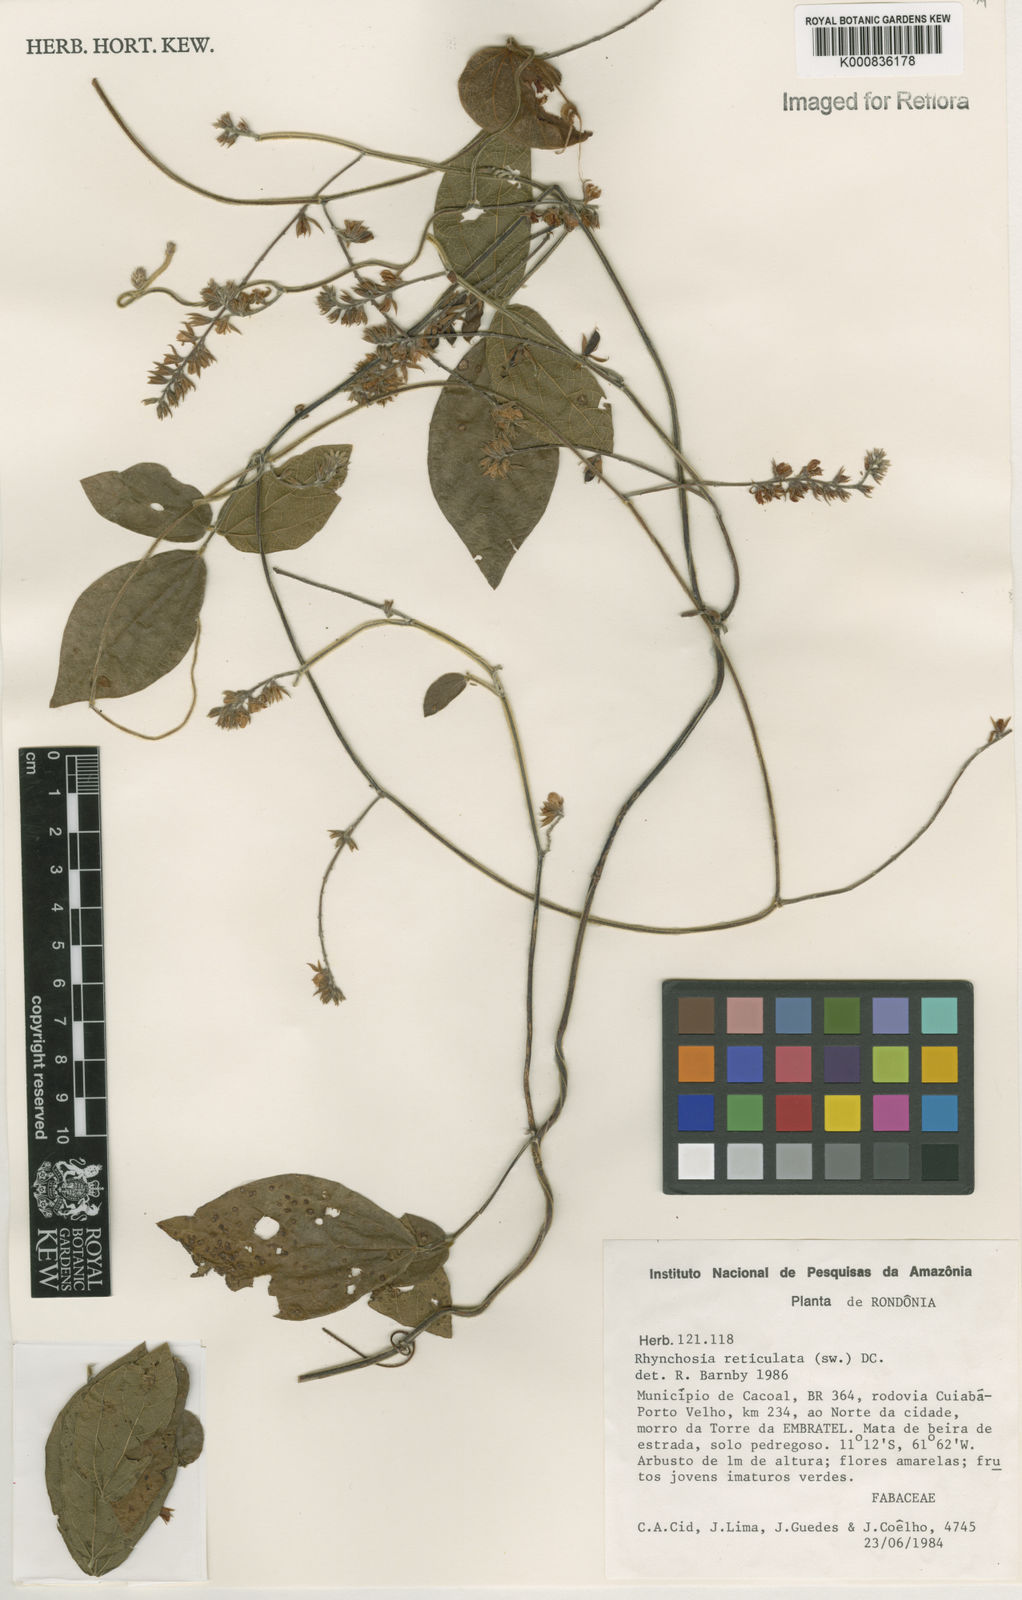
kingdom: Plantae
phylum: Tracheophyta
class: Magnoliopsida
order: Fabales
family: Fabaceae
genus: Rhynchosia
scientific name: Rhynchosia reticulata
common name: Pea withe
